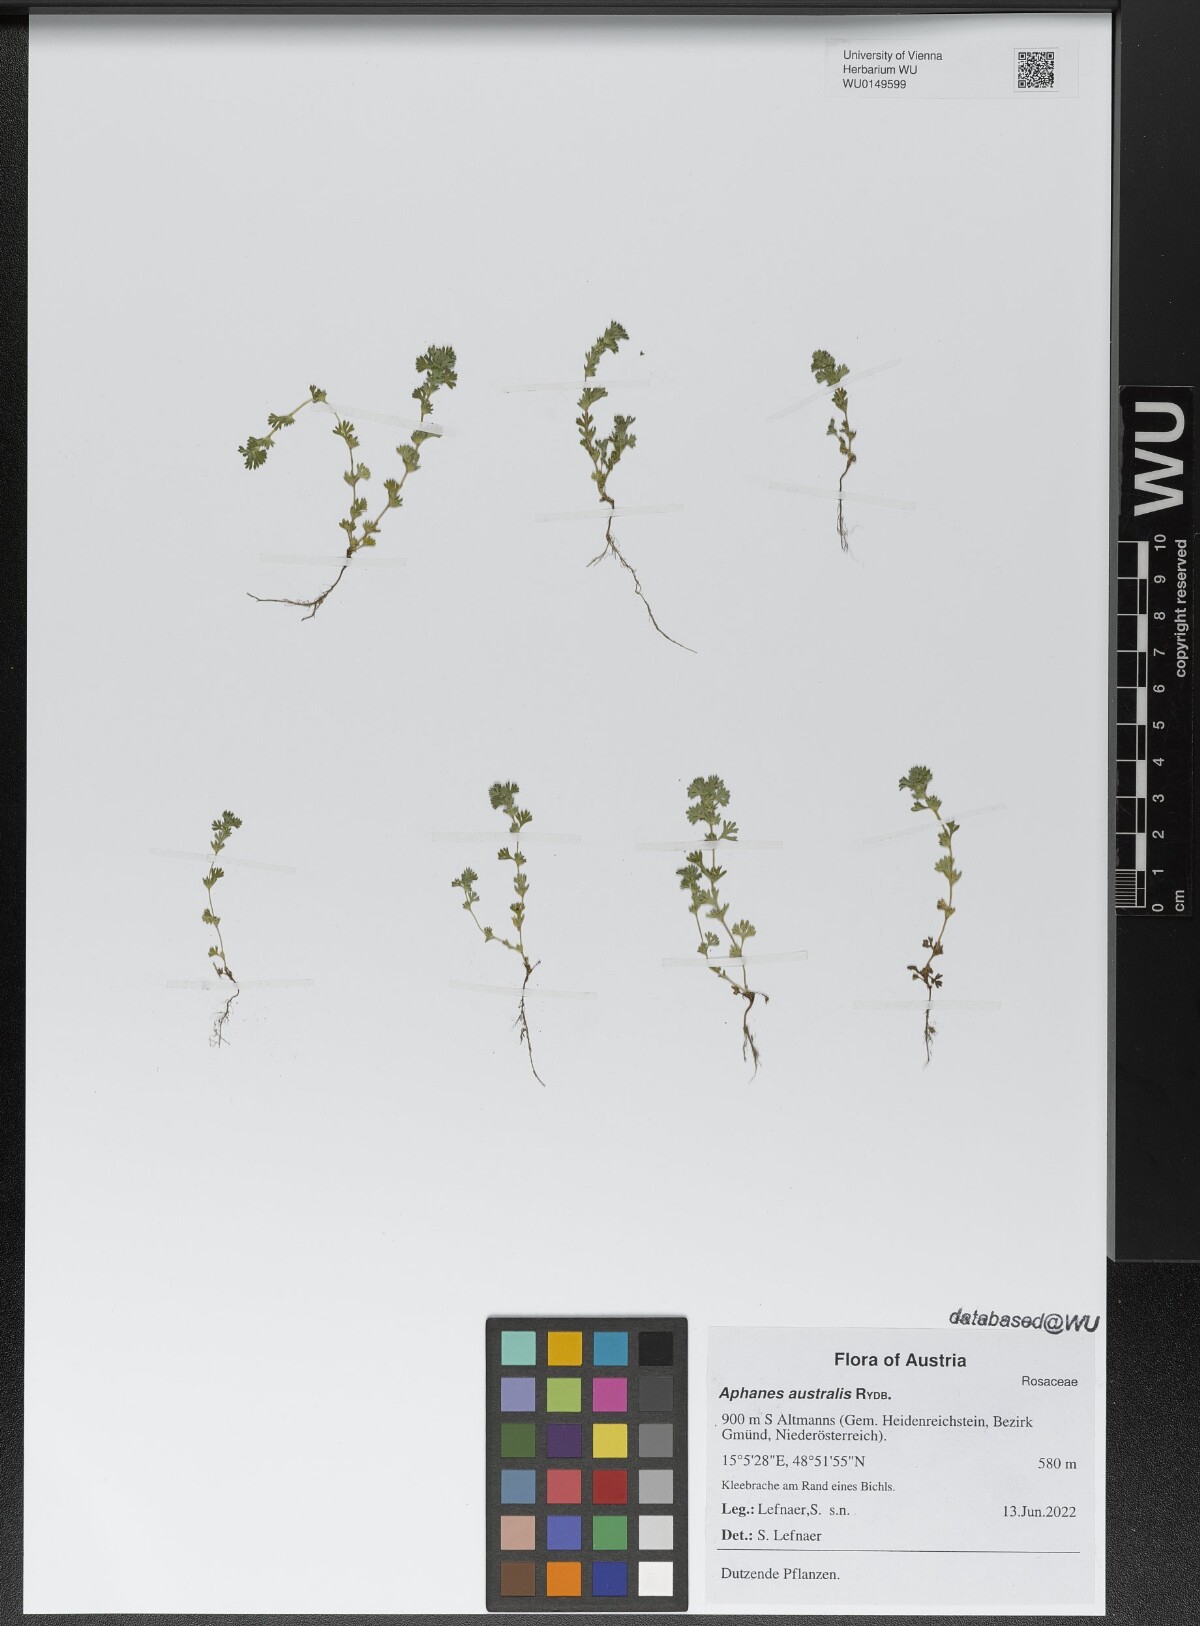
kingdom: Plantae
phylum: Tracheophyta
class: Magnoliopsida
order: Rosales
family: Rosaceae
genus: Aphanes
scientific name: Aphanes australis
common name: Slender parsley-piert
